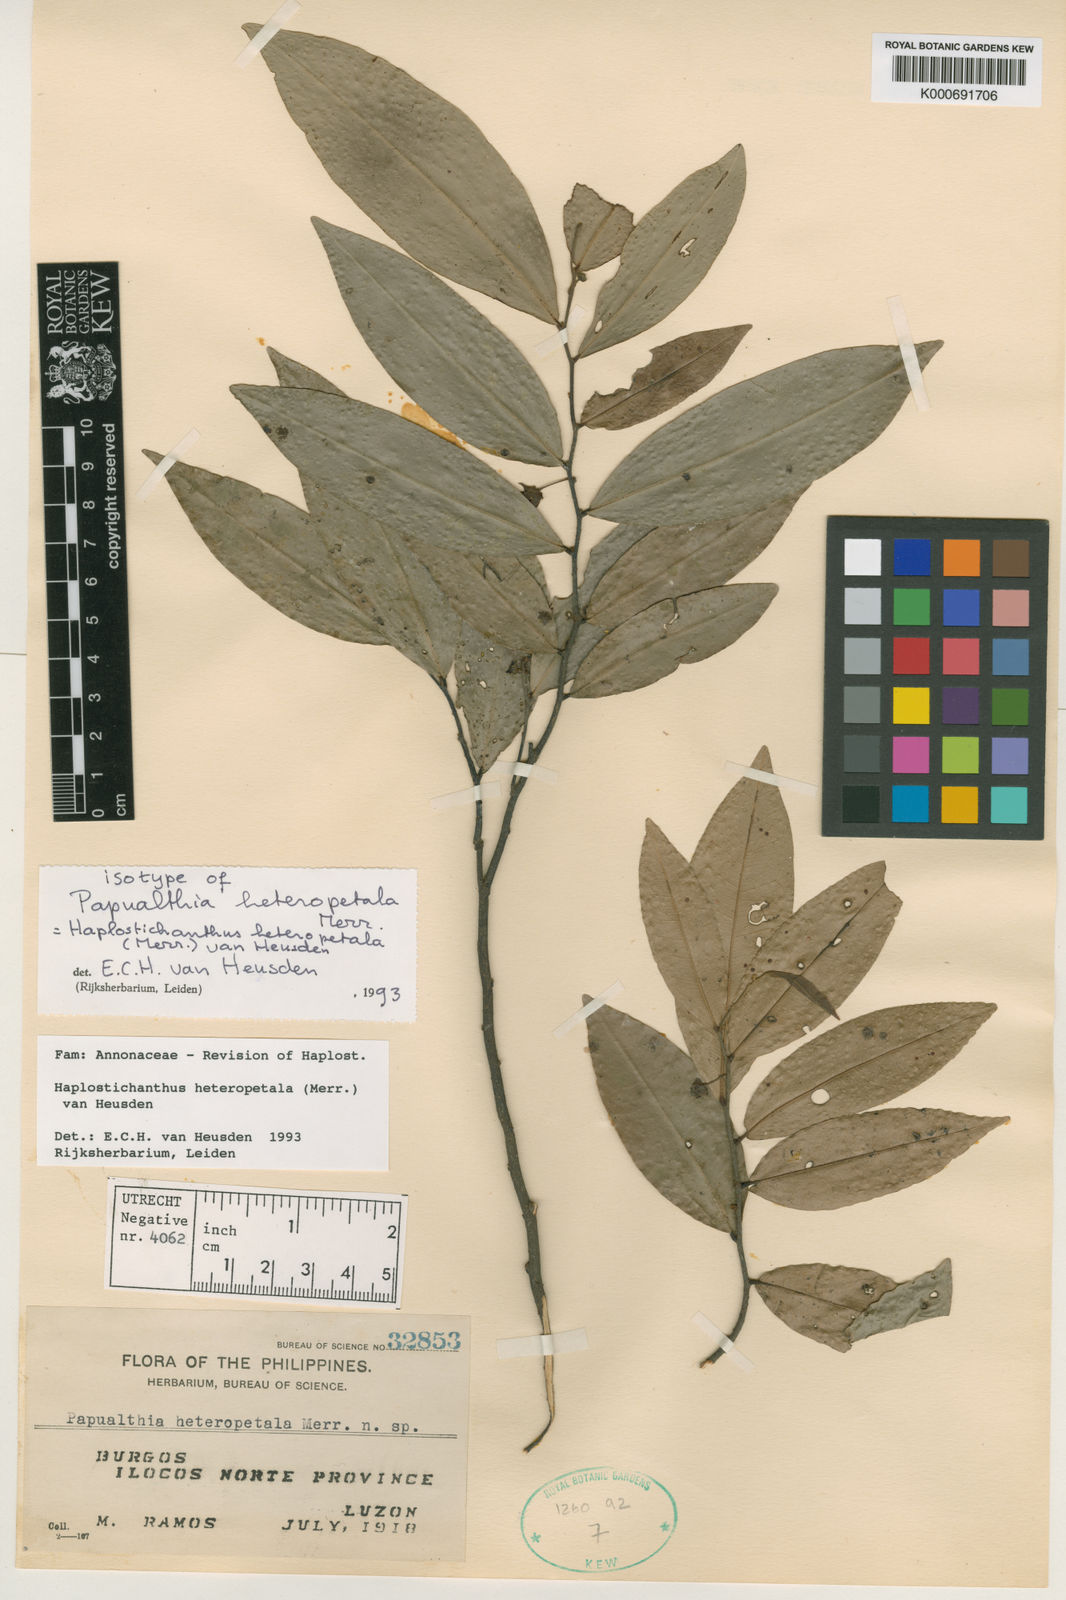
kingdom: Plantae
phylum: Tracheophyta
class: Magnoliopsida
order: Magnoliales
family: Annonaceae
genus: Haplostichanthus
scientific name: Haplostichanthus heteropetala
